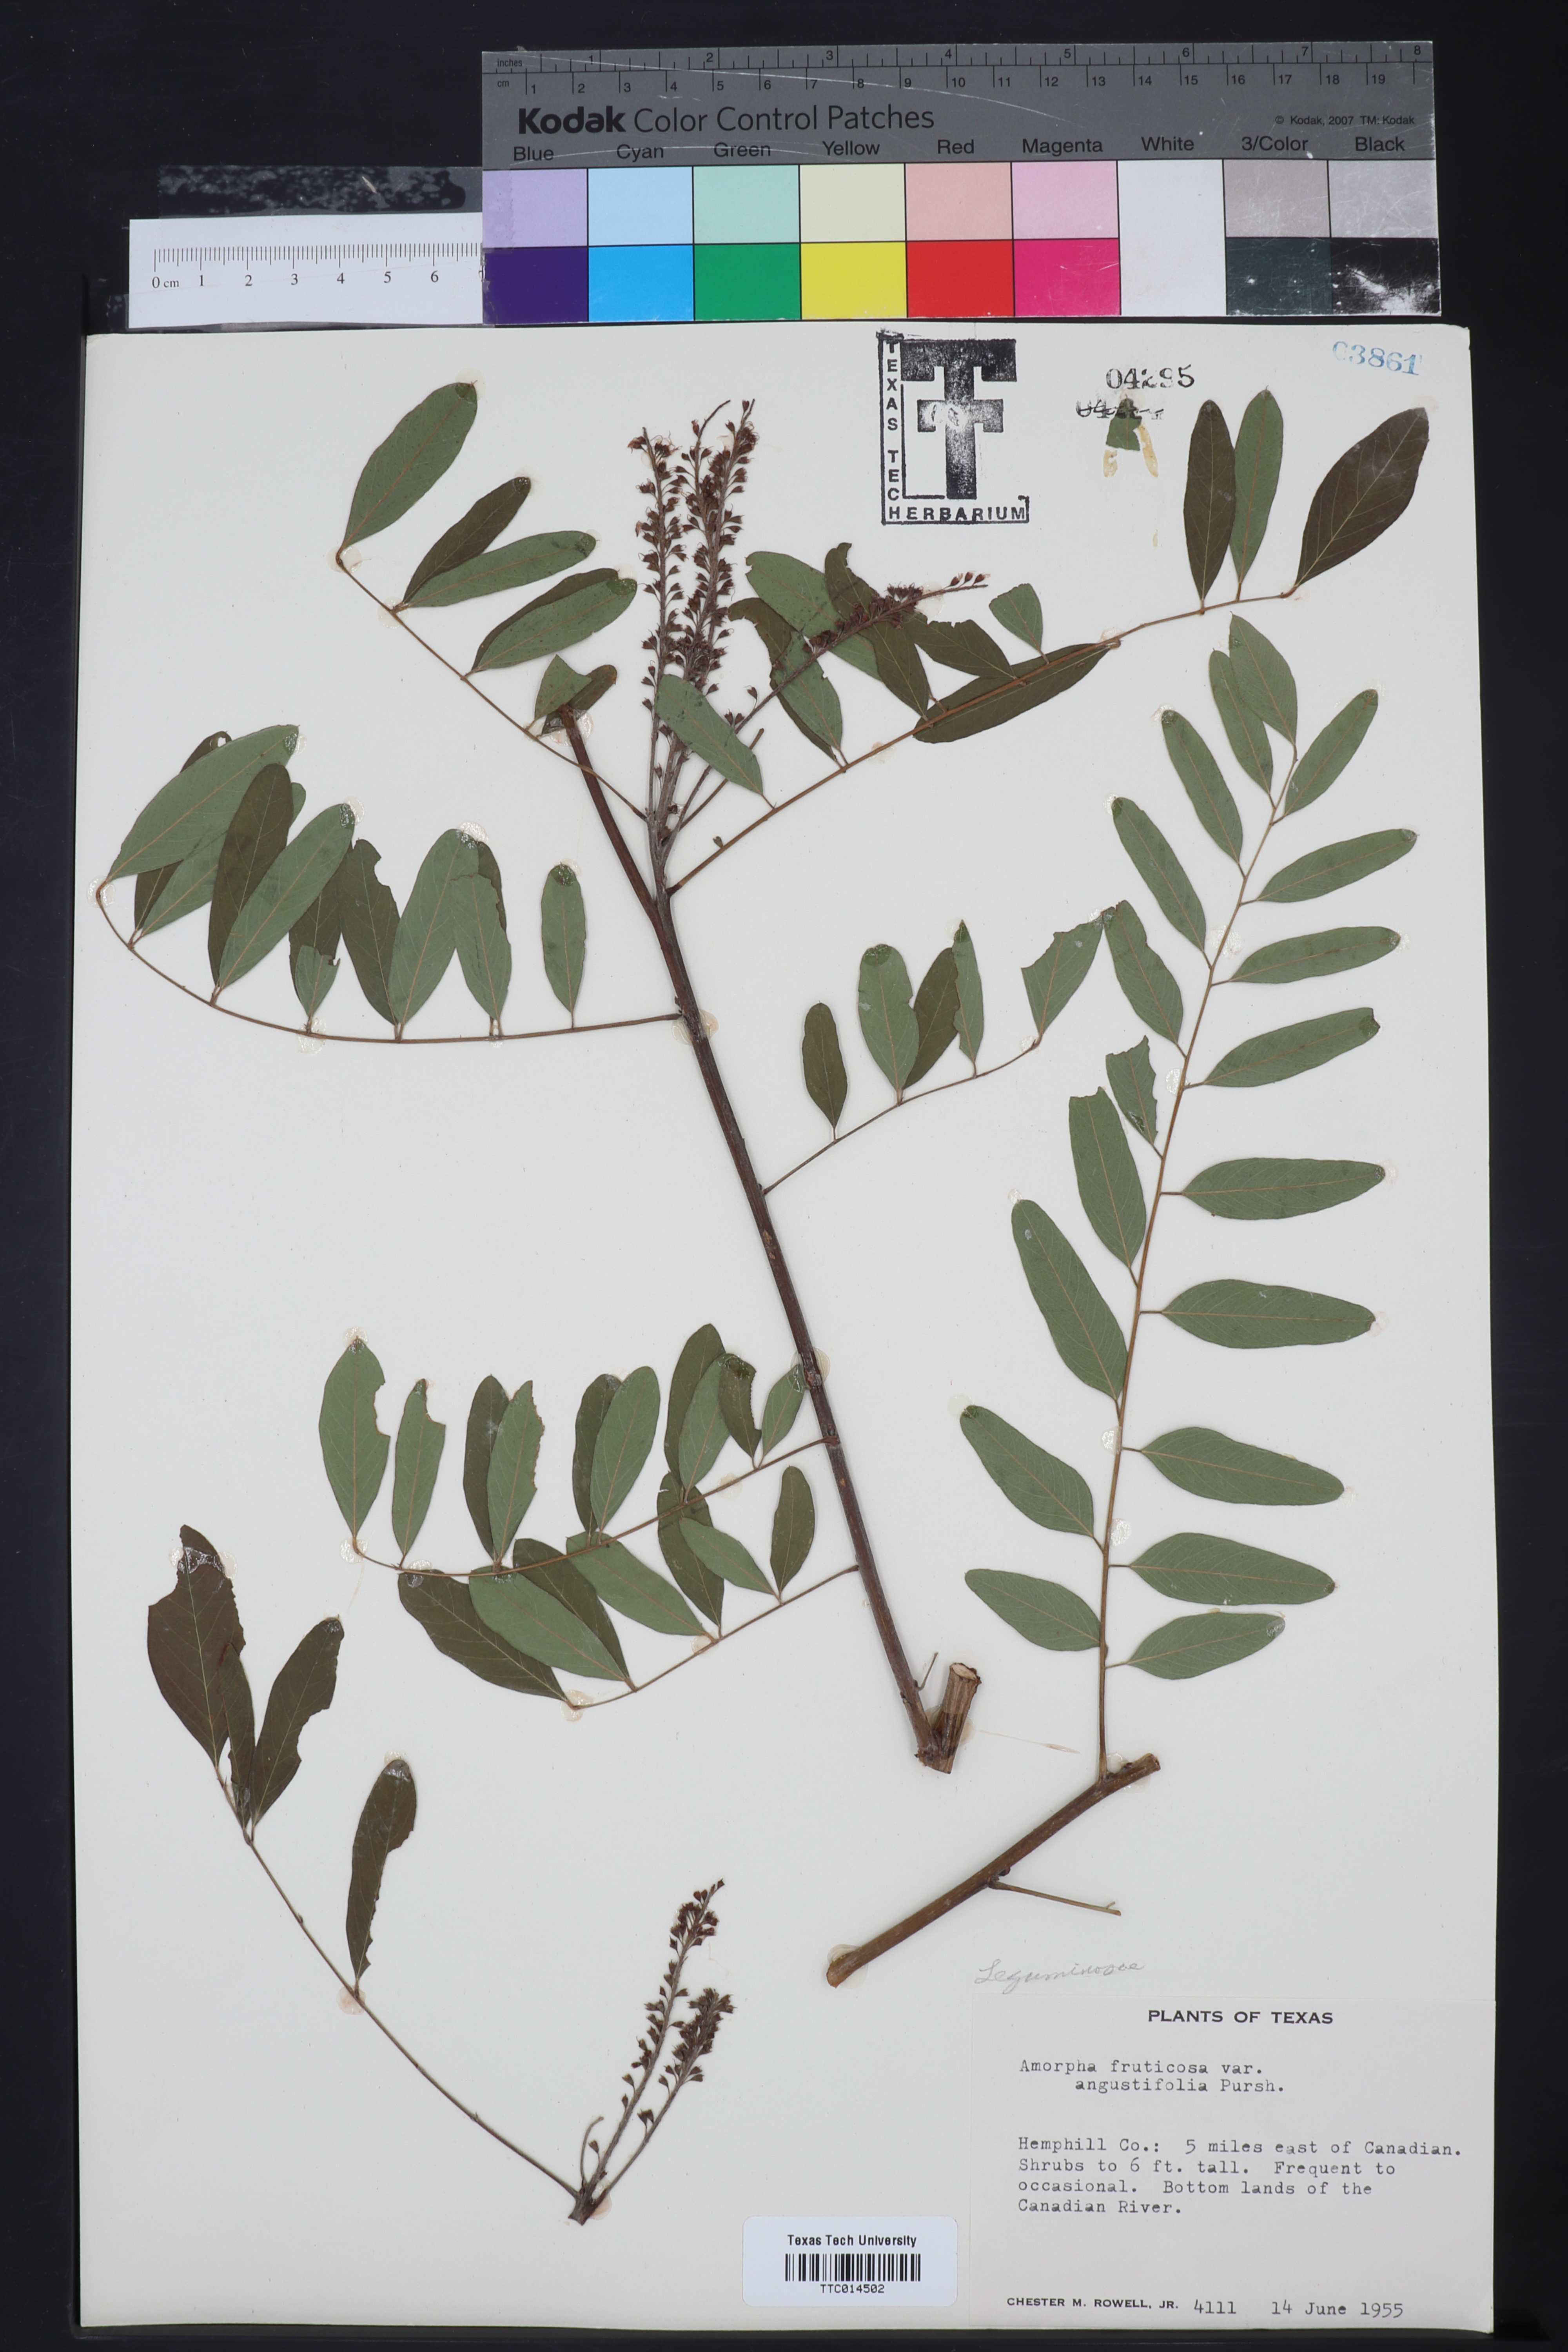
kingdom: Plantae
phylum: Tracheophyta
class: Magnoliopsida
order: Fabales
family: Fabaceae
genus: Amorpha
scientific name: Amorpha fruticosa
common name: False indigo
